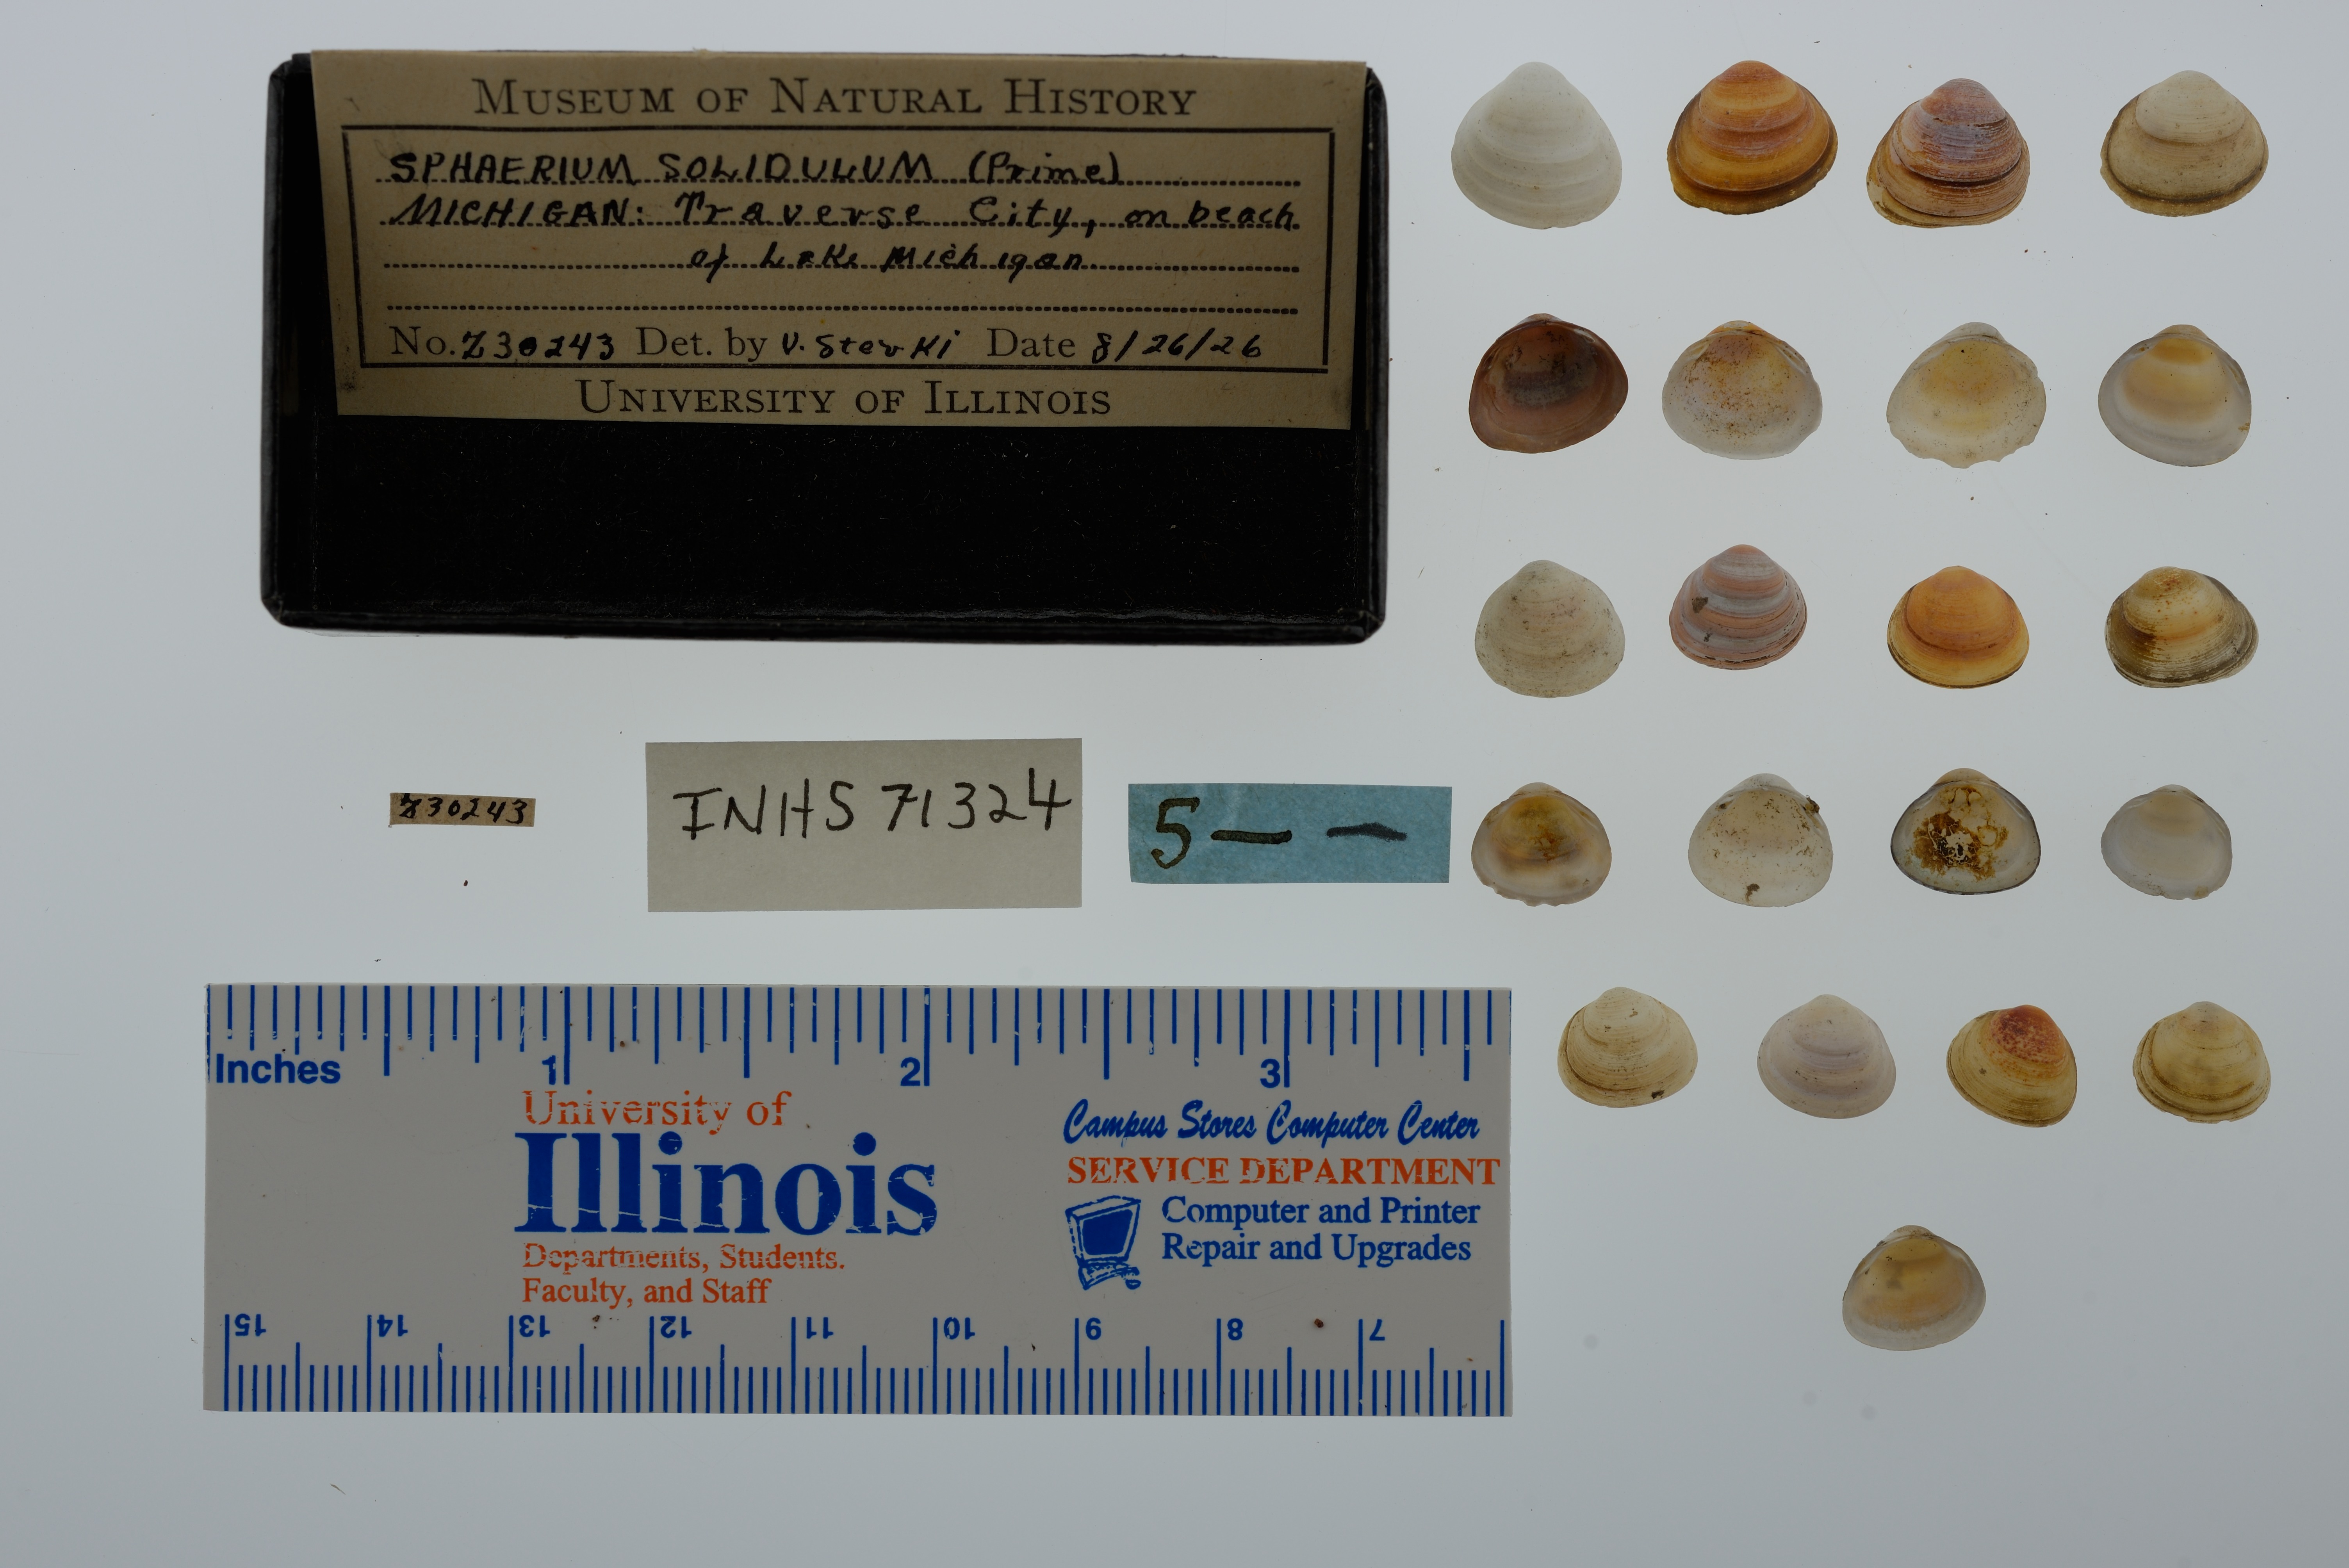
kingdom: Animalia
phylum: Mollusca
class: Bivalvia
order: Sphaeriida
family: Sphaeriidae
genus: Sphaerium
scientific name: Sphaerium striatinum
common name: Striated fingernailclam
